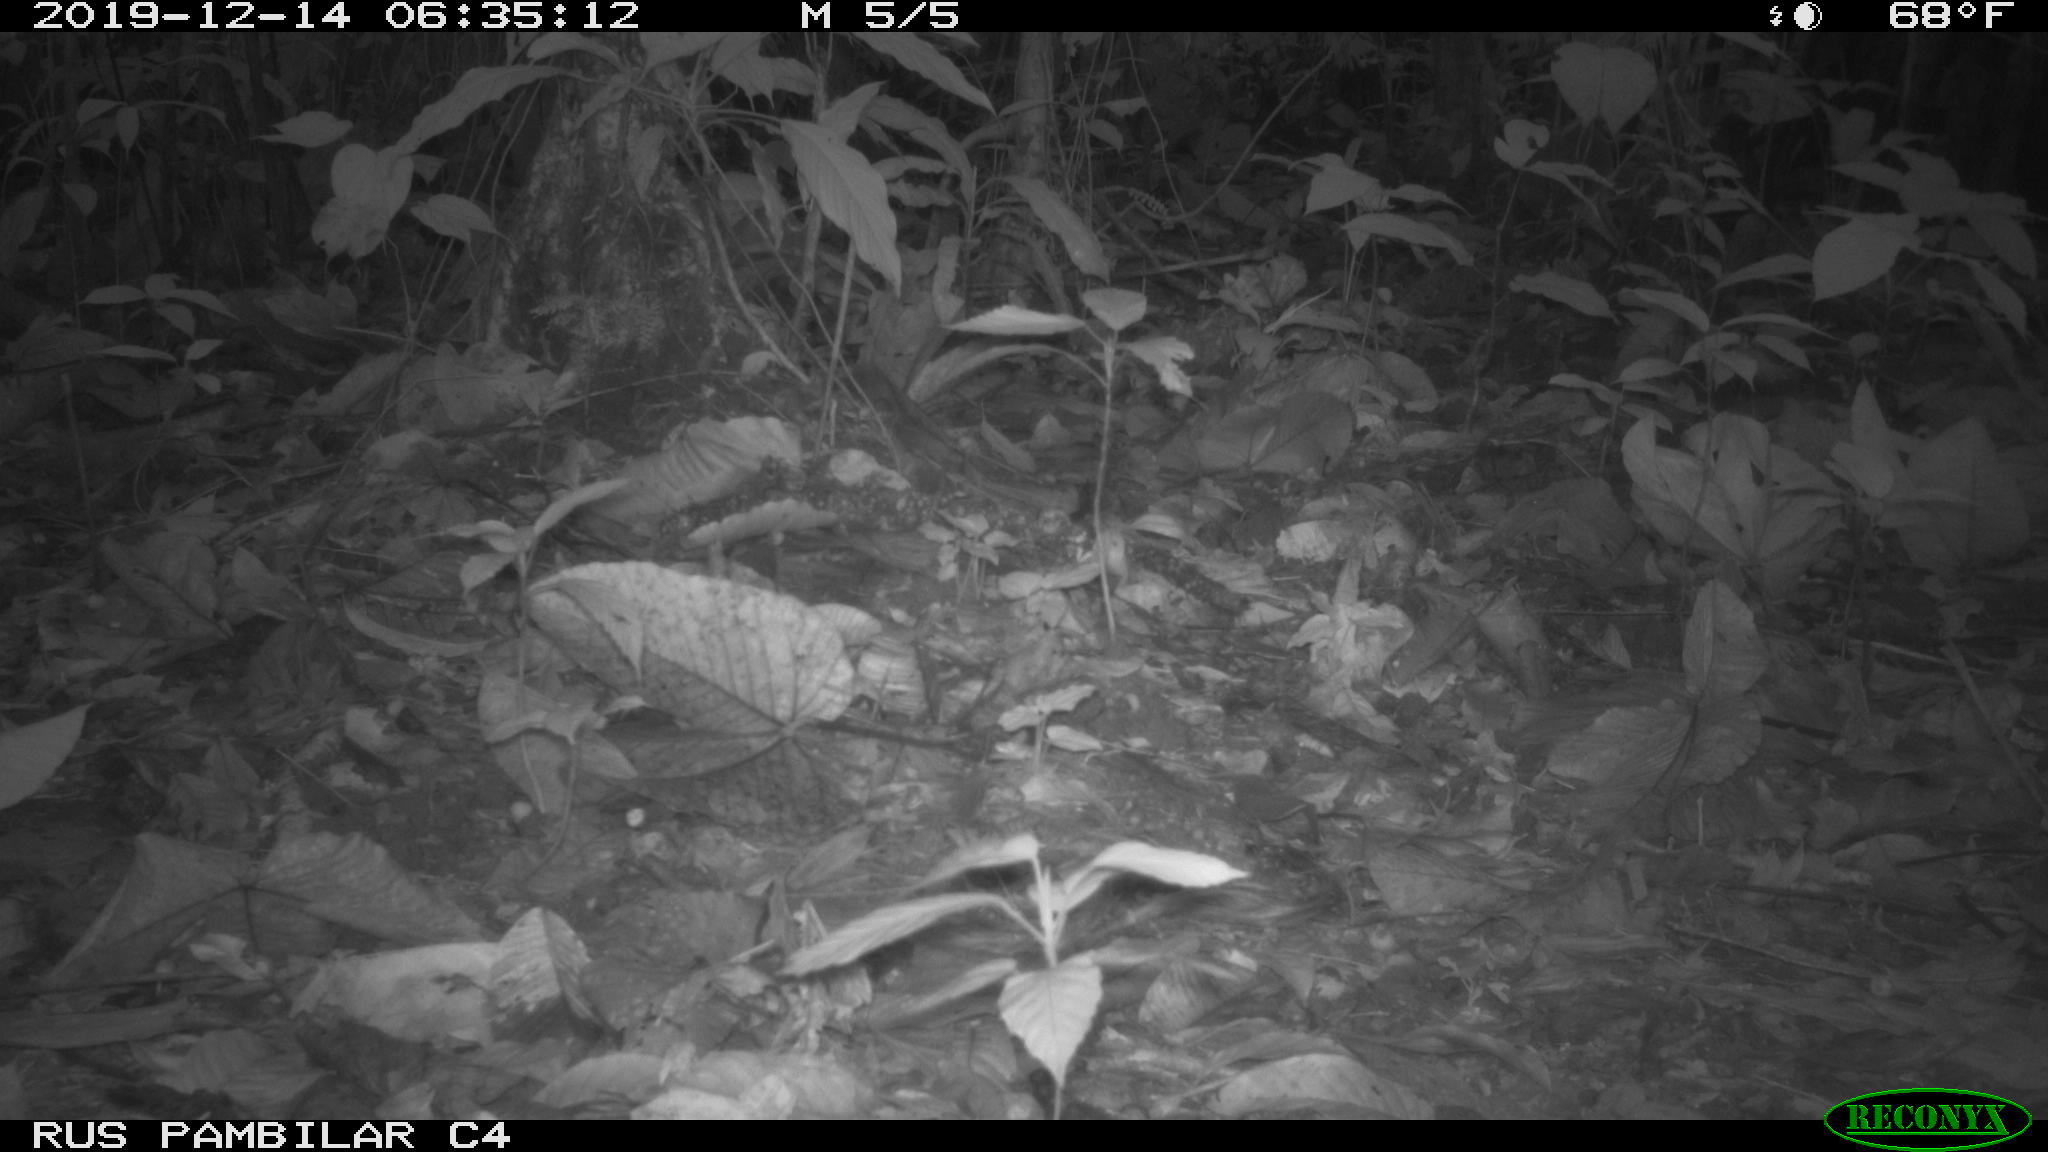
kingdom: Animalia
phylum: Chordata
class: Aves
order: Columbiformes
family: Columbidae
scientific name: Columbidae
